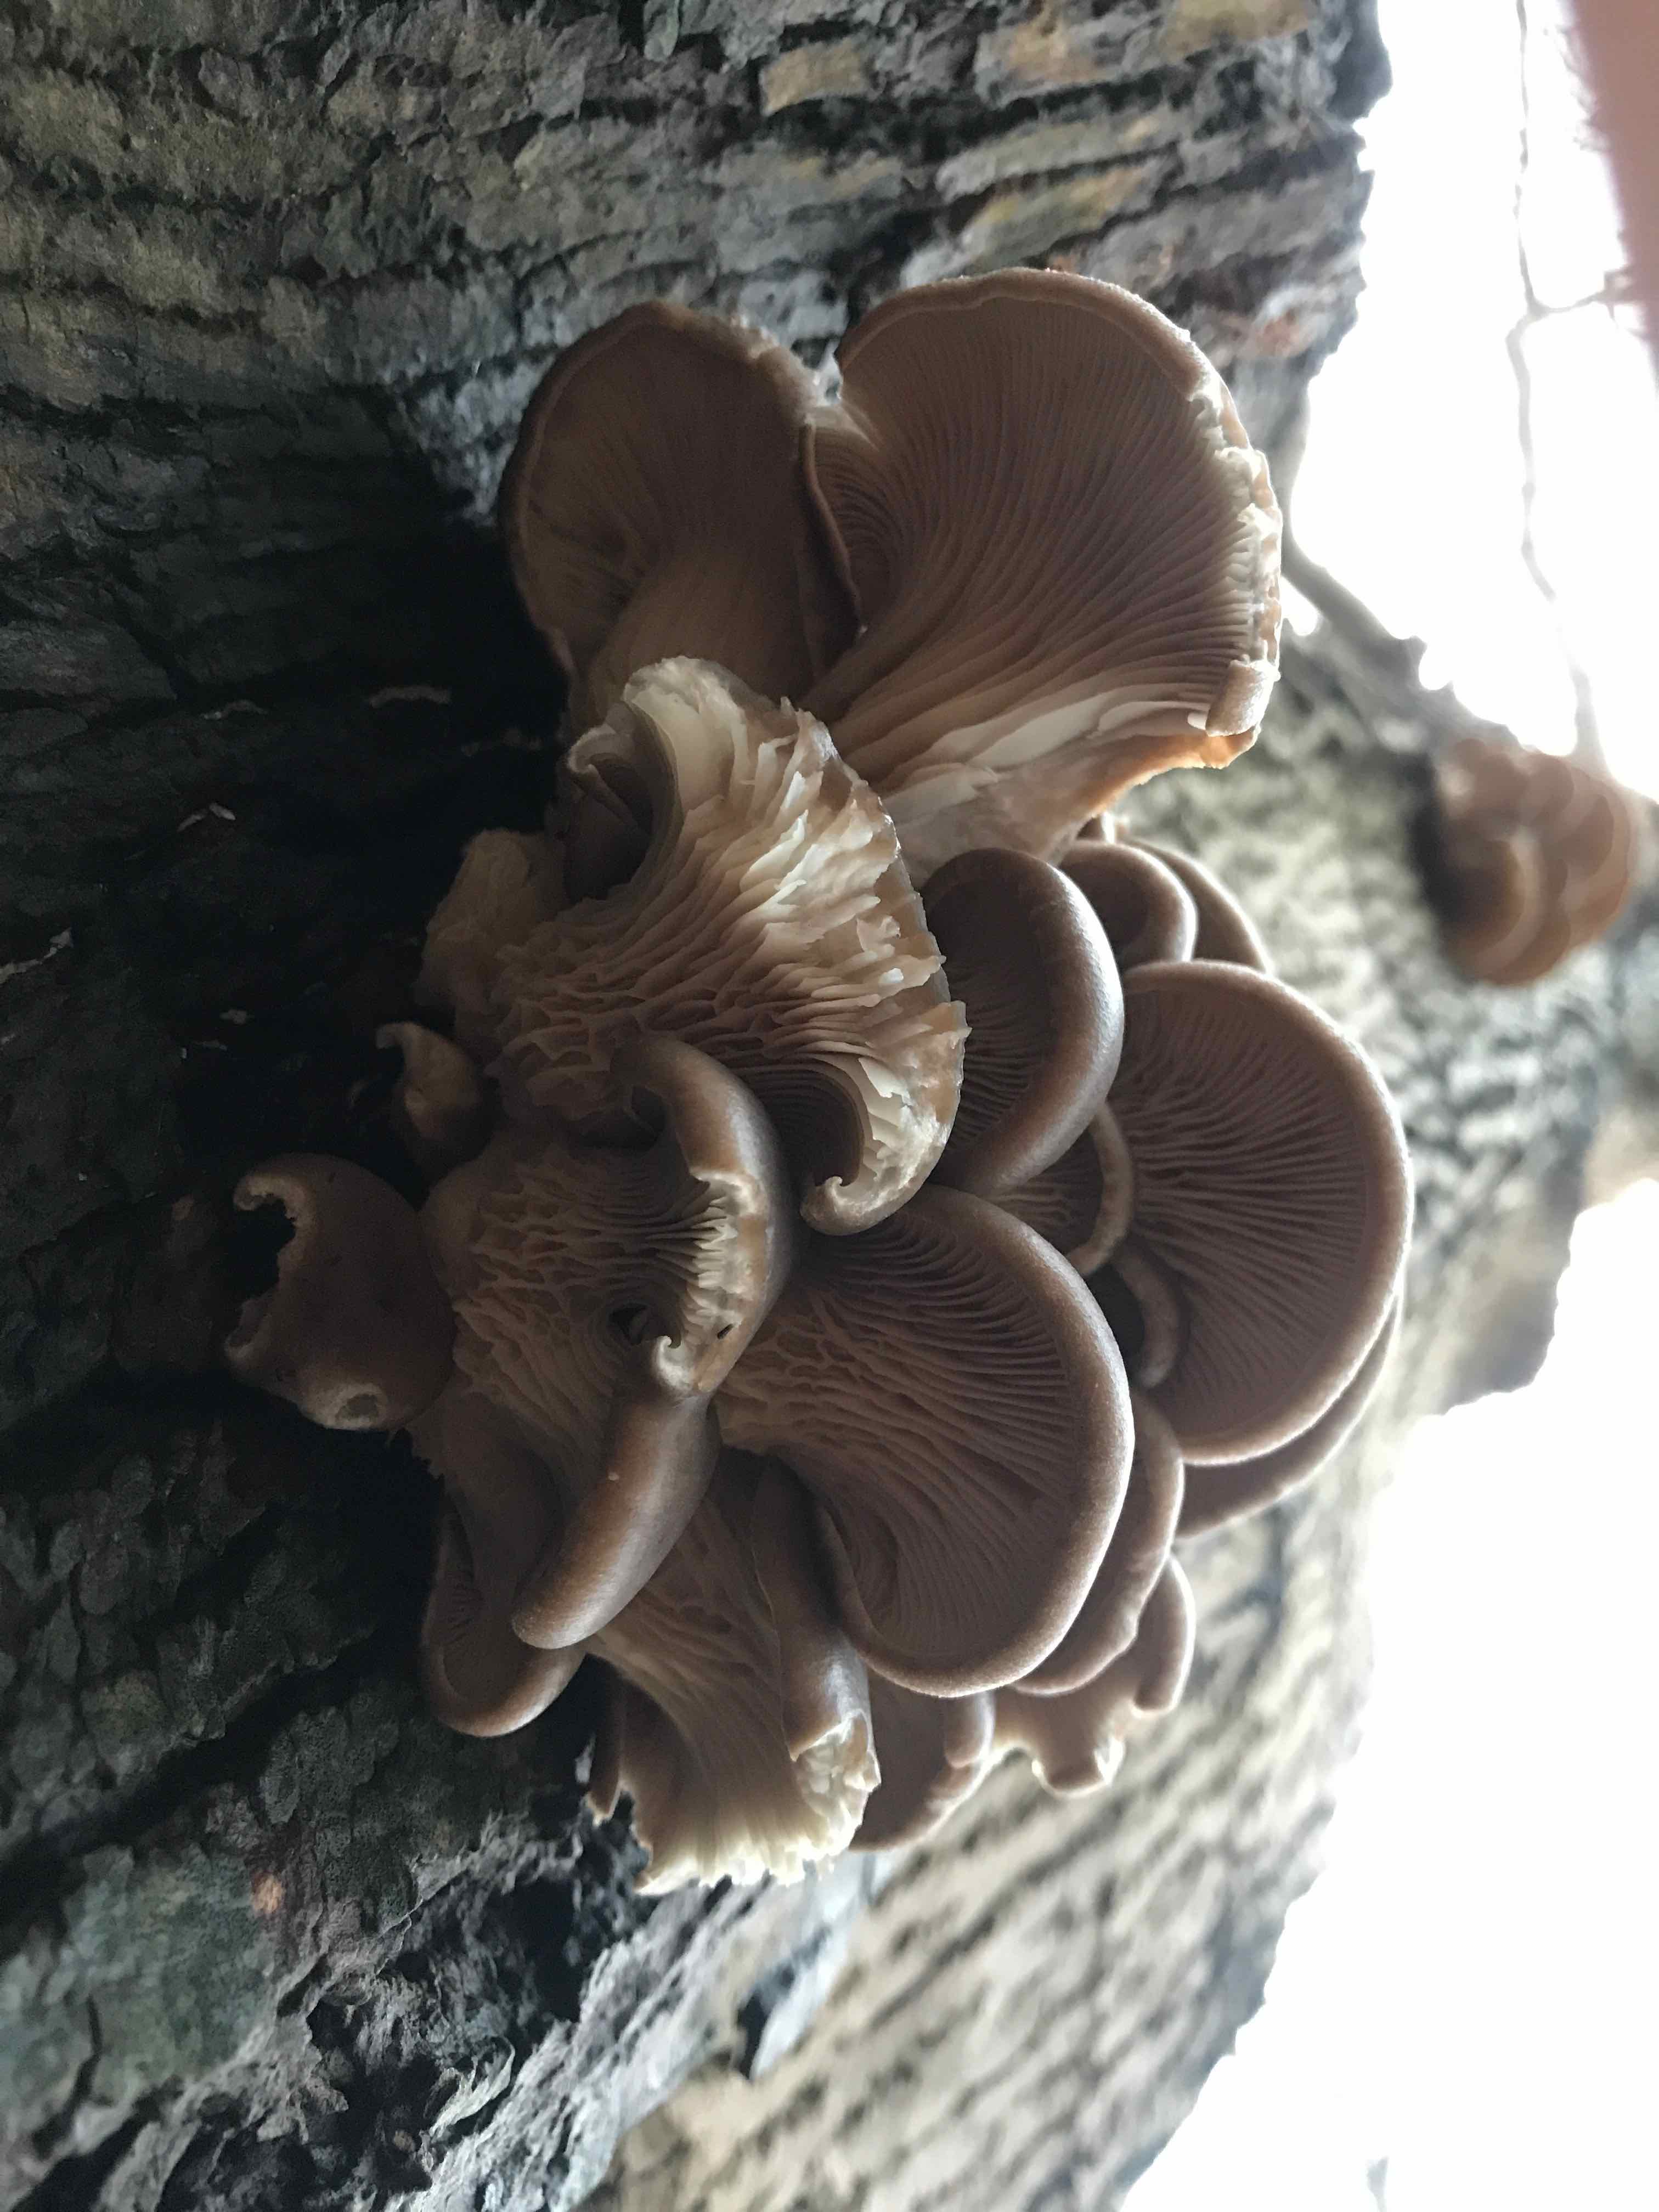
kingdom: Fungi
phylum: Basidiomycota
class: Agaricomycetes
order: Agaricales
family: Pleurotaceae
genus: Pleurotus
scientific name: Pleurotus ostreatus
